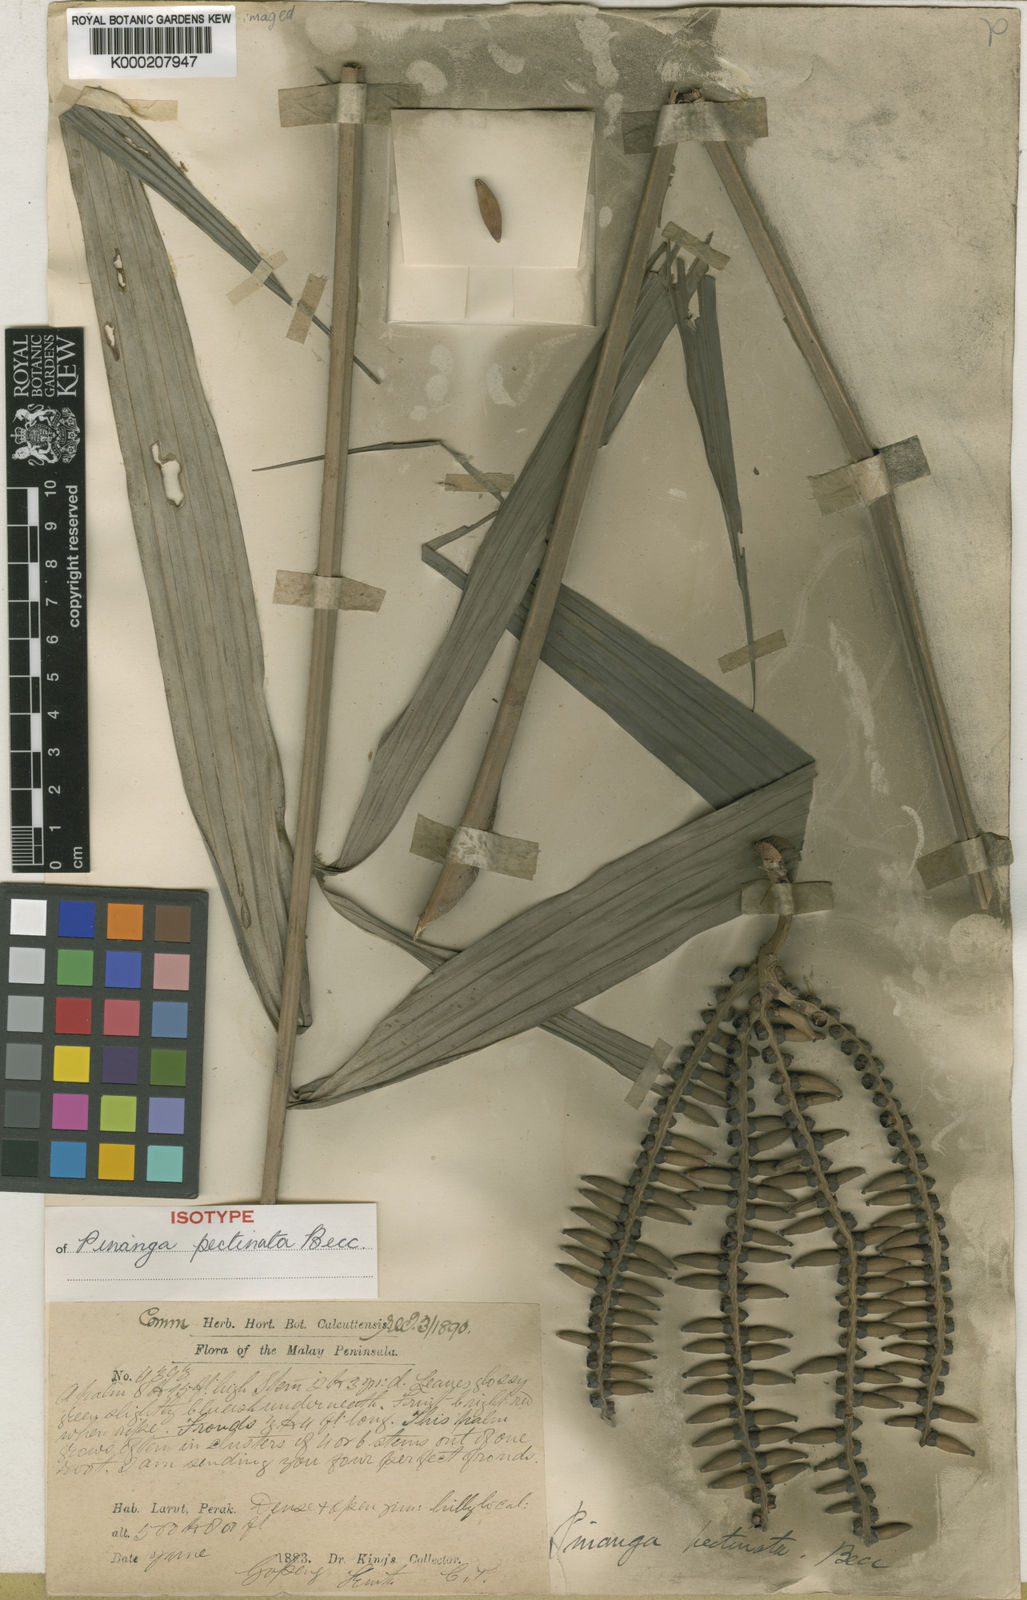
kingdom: Plantae
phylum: Tracheophyta
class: Liliopsida
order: Arecales
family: Arecaceae
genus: Pinanga
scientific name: Pinanga pectinata
